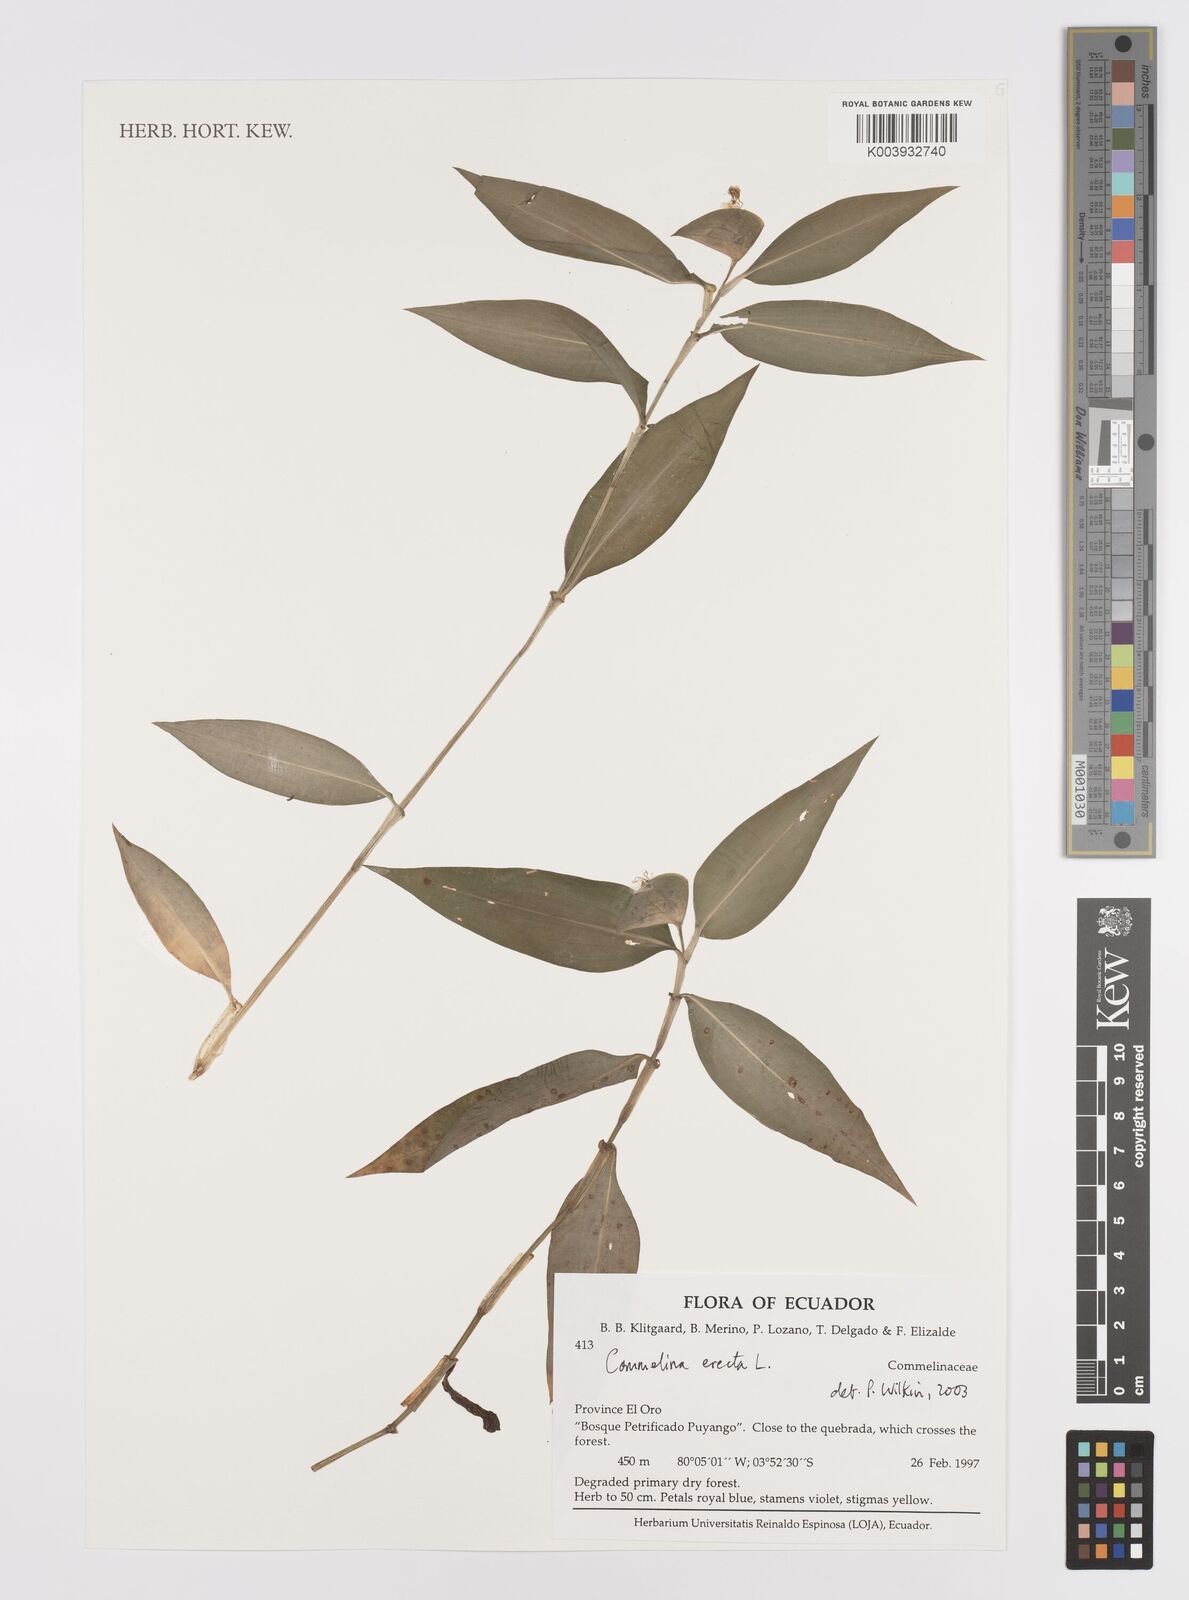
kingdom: Plantae
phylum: Tracheophyta
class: Liliopsida
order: Commelinales
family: Commelinaceae
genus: Commelina
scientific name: Commelina erecta
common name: Blousel blommetjie
